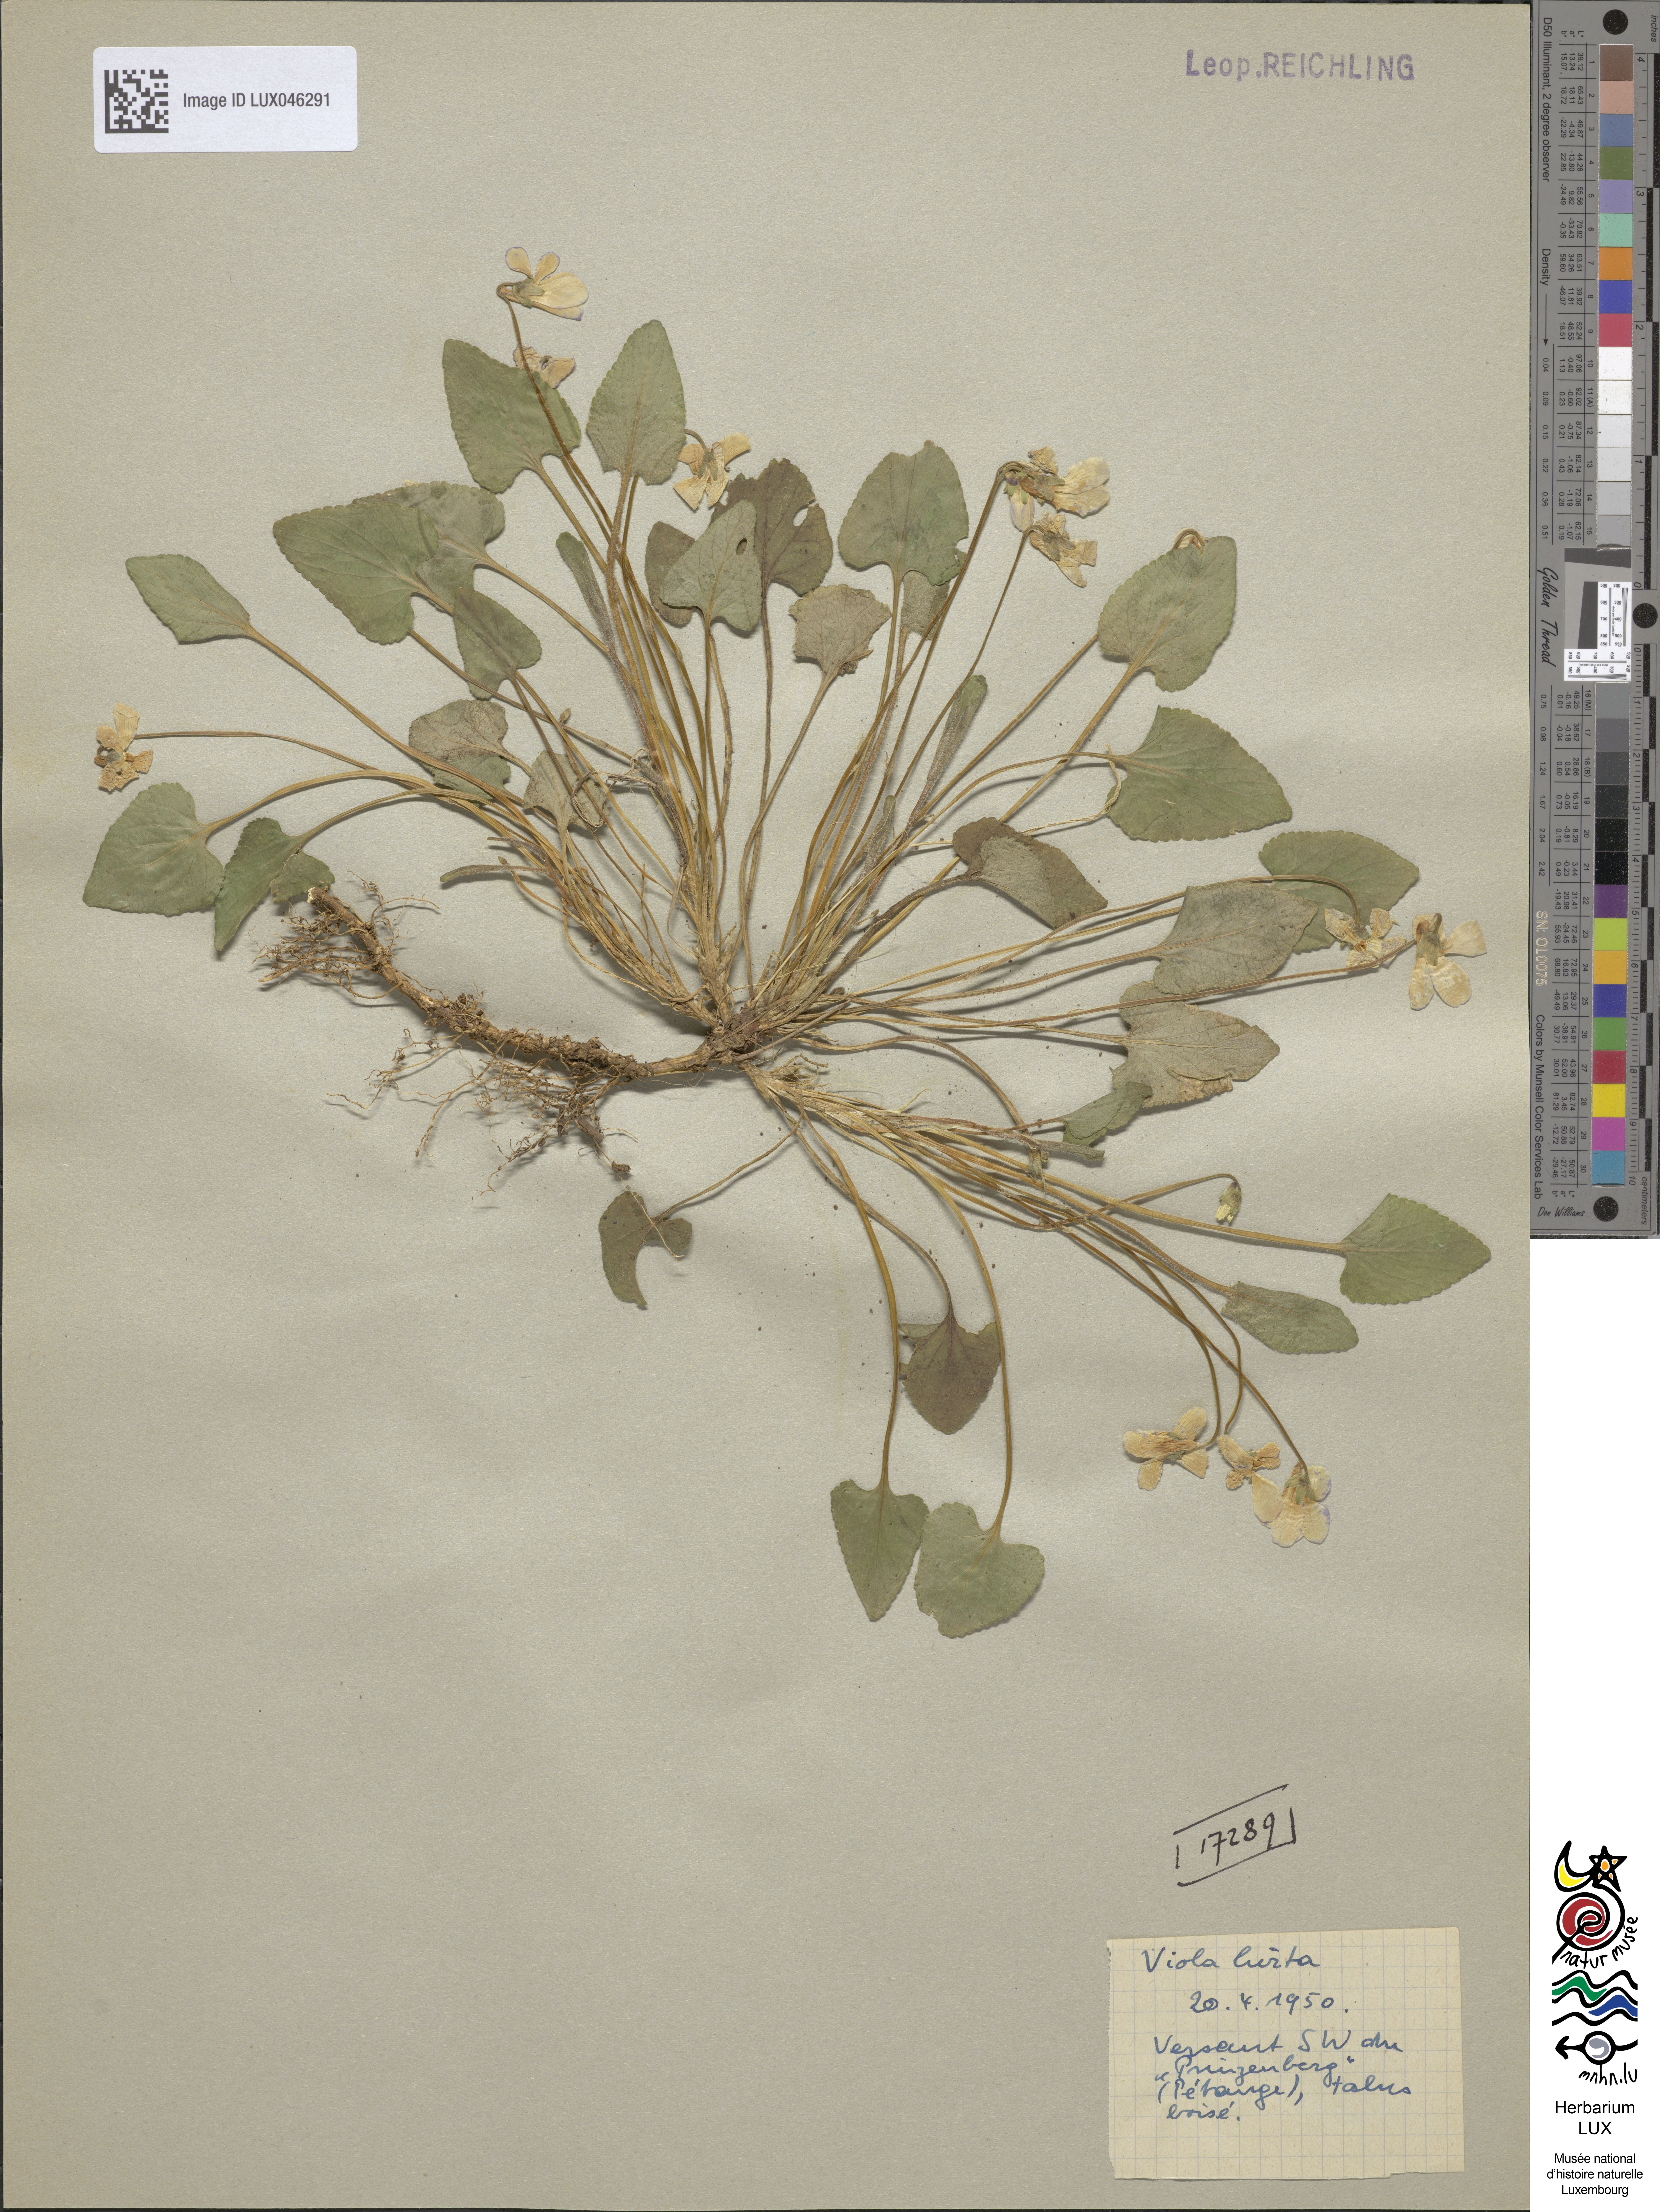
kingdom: Plantae
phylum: Tracheophyta
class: Magnoliopsida
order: Malpighiales
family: Violaceae
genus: Viola
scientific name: Viola hirta
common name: Hairy violet
